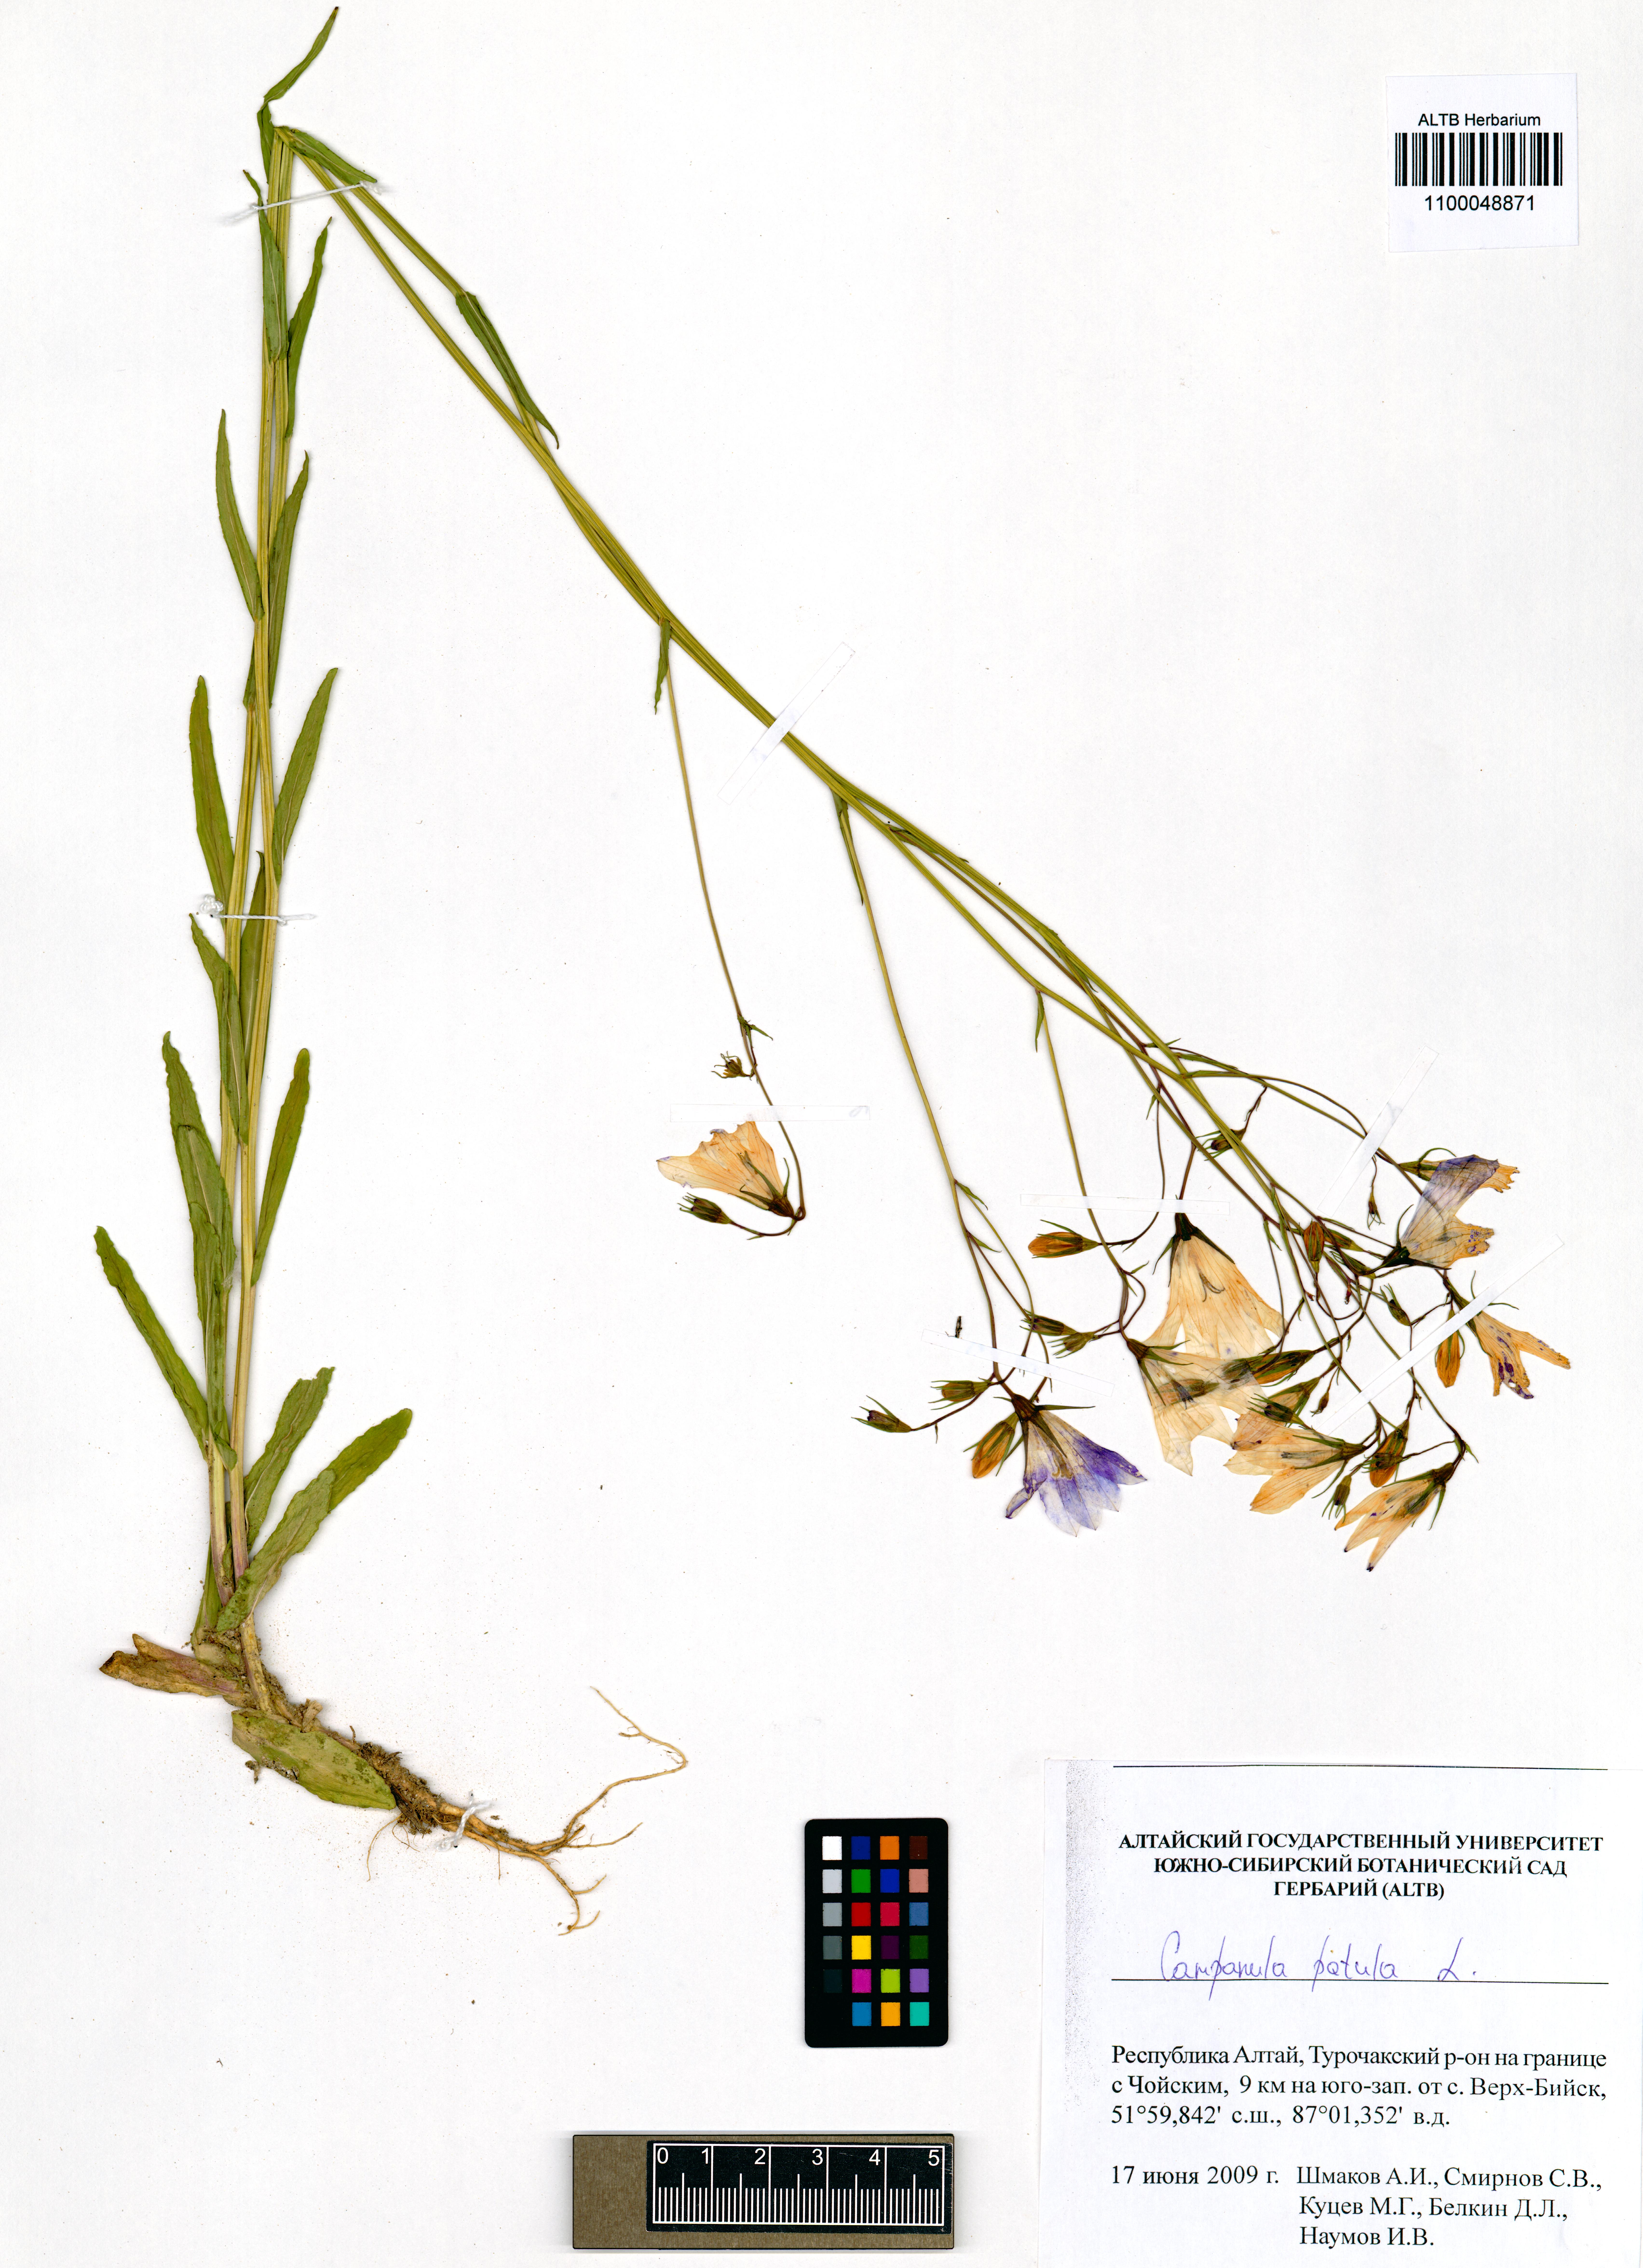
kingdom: Plantae
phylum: Tracheophyta
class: Magnoliopsida
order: Asterales
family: Campanulaceae
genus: Campanula
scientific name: Campanula patula
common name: Spreading bellflower
